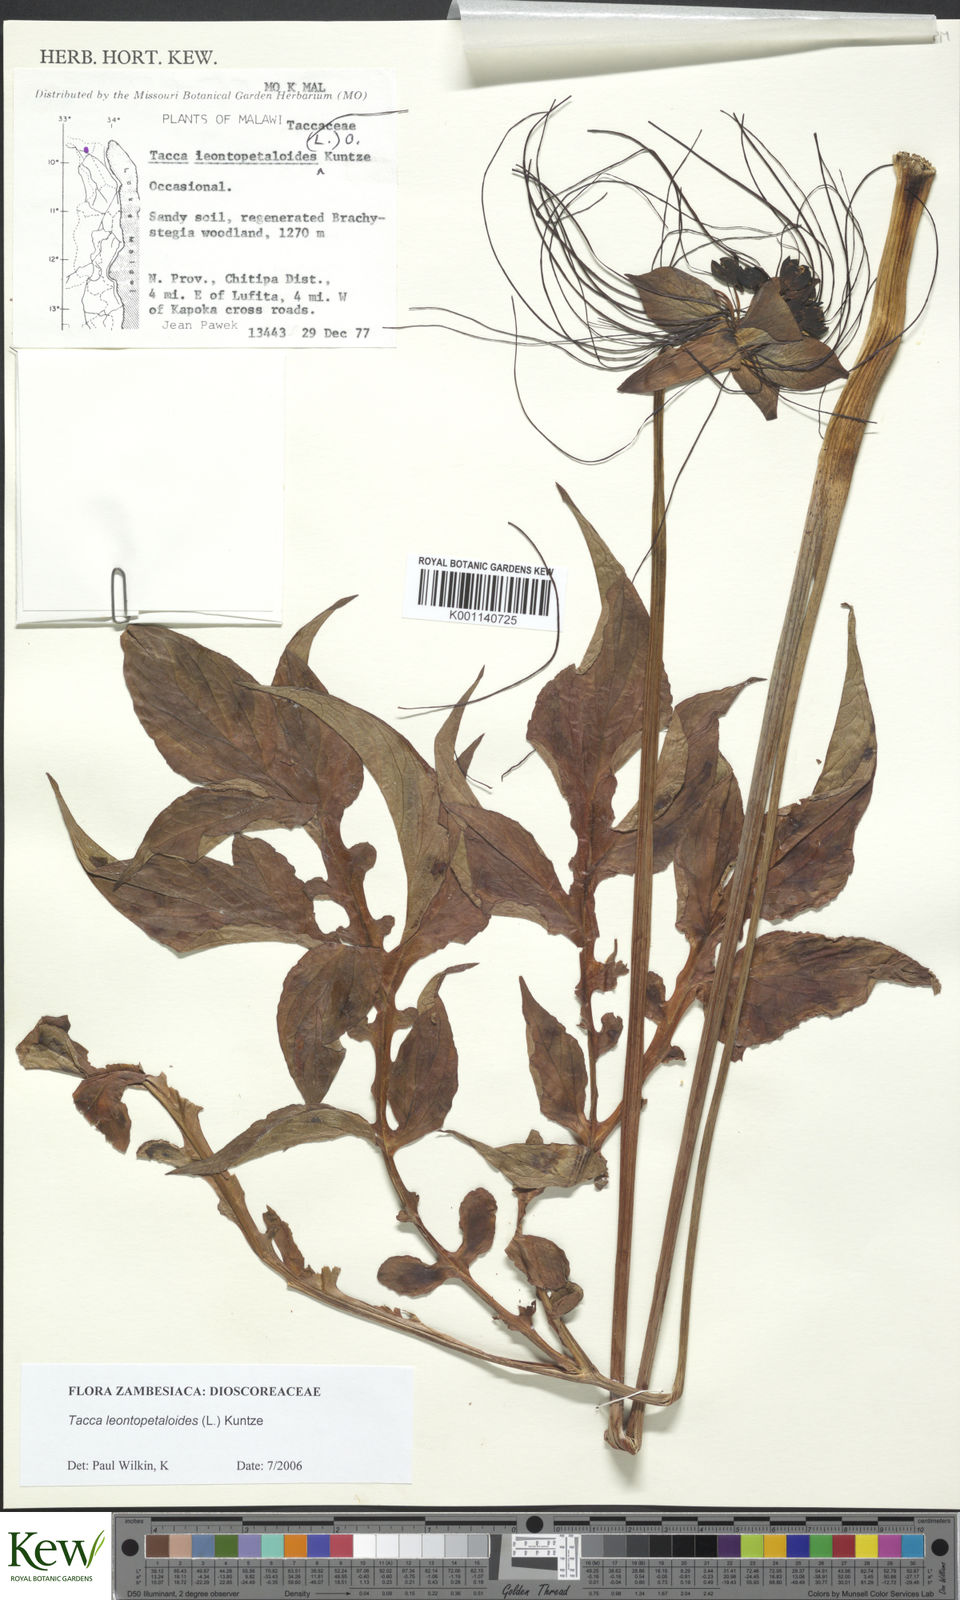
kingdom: Plantae
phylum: Tracheophyta
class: Liliopsida
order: Dioscoreales
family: Dioscoreaceae
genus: Tacca
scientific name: Tacca leontopetaloides
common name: Arrowroot
